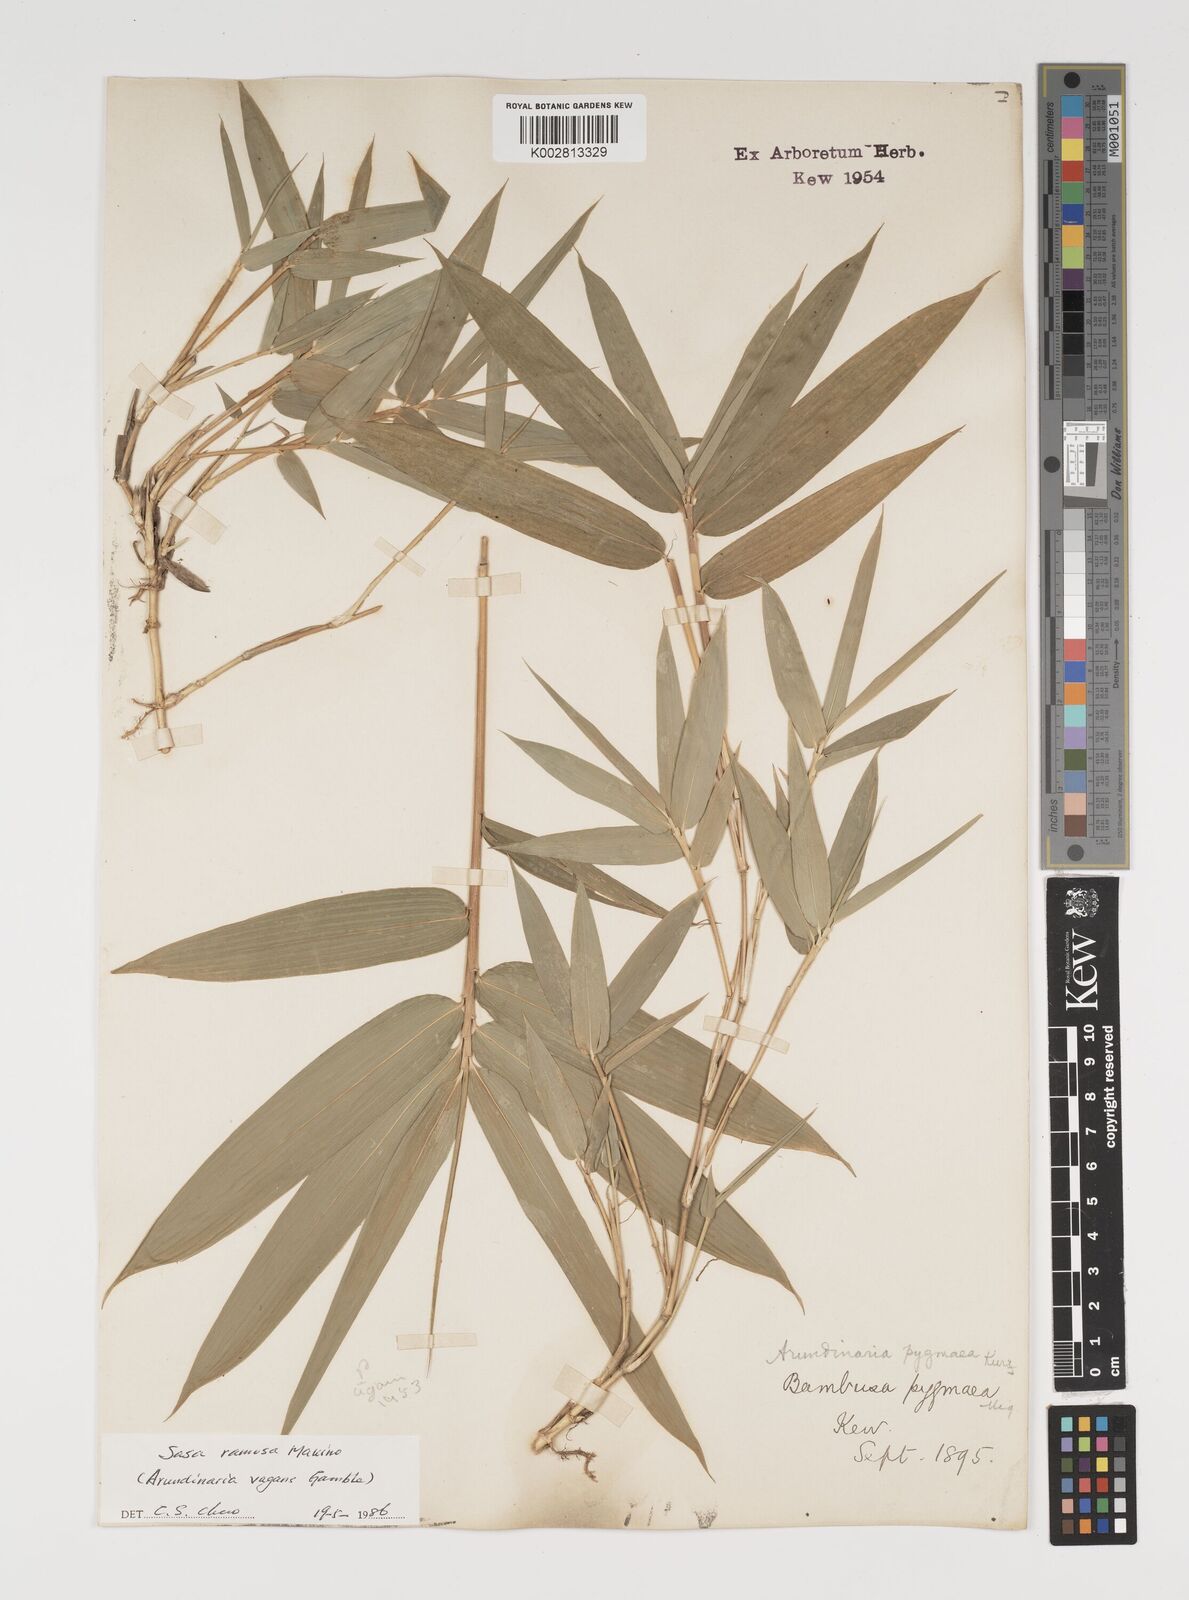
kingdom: Plantae
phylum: Tracheophyta
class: Liliopsida
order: Poales
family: Poaceae
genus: Sasaella
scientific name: Sasaella ramosa
